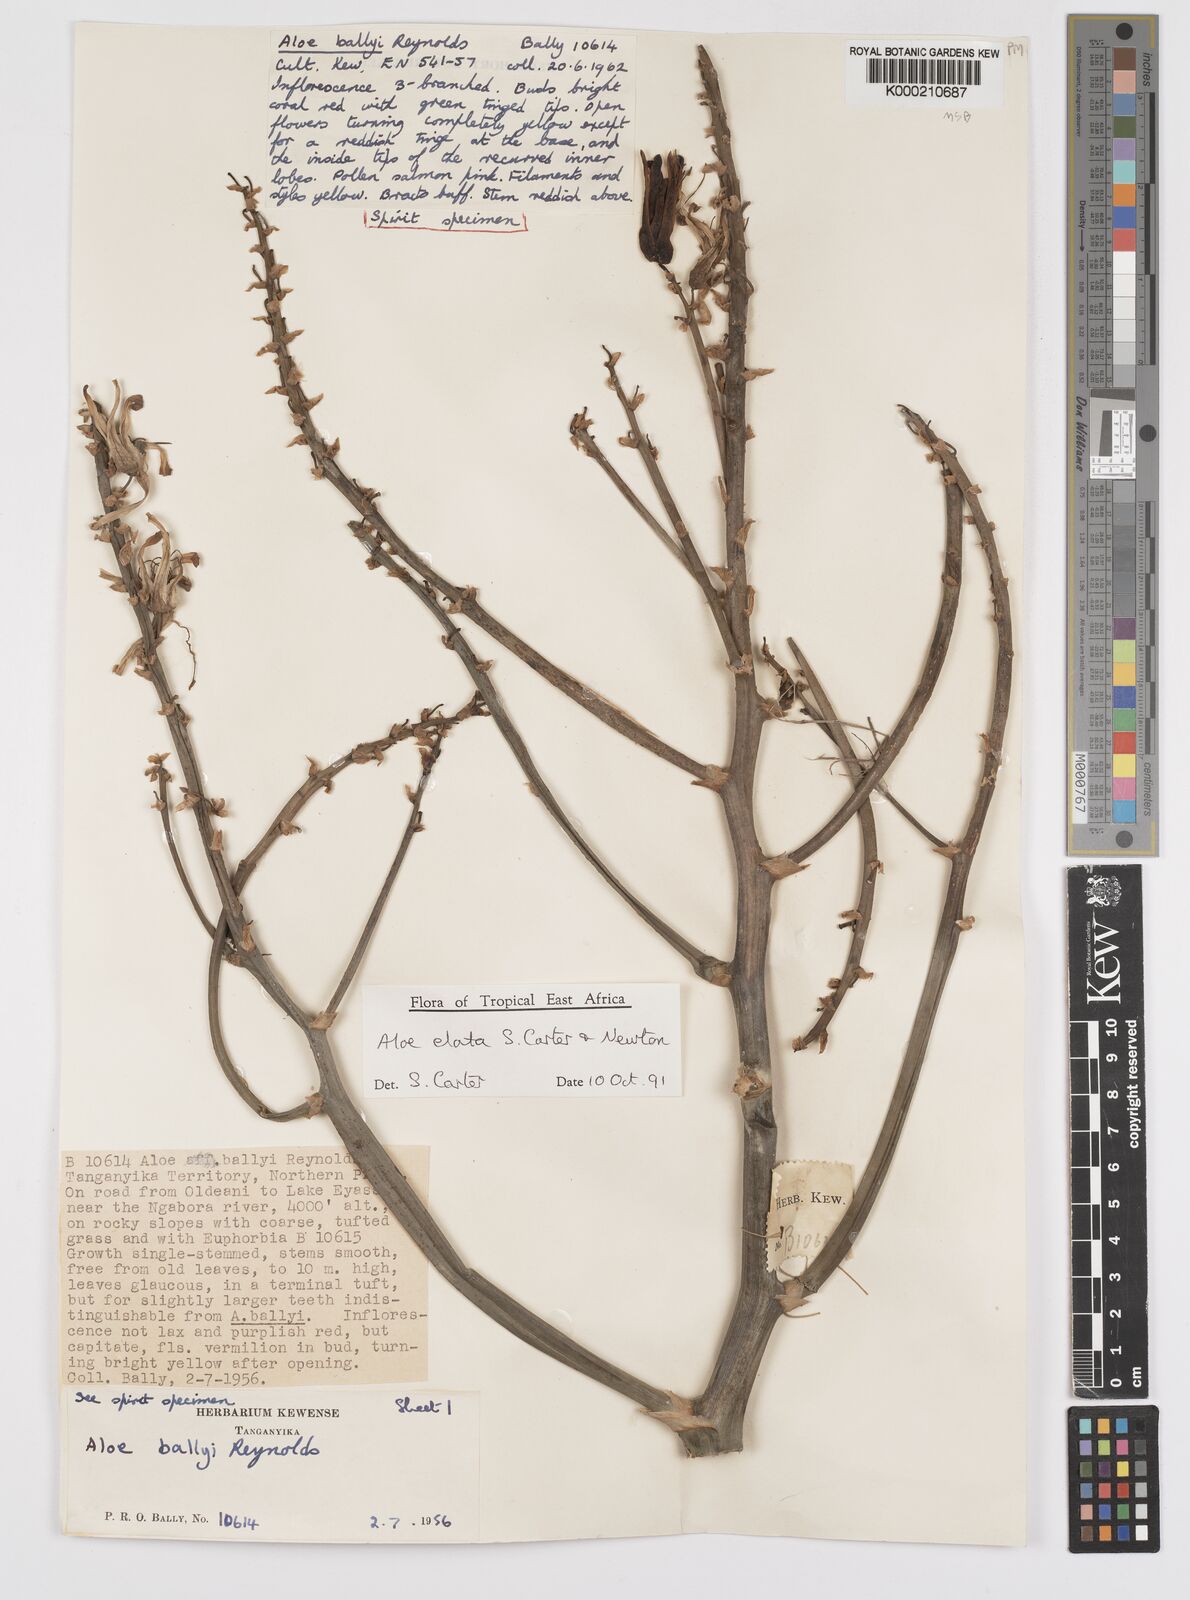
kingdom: Plantae
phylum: Tracheophyta
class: Liliopsida
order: Asparagales
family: Asphodelaceae
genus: Aloe
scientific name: Aloe elata
